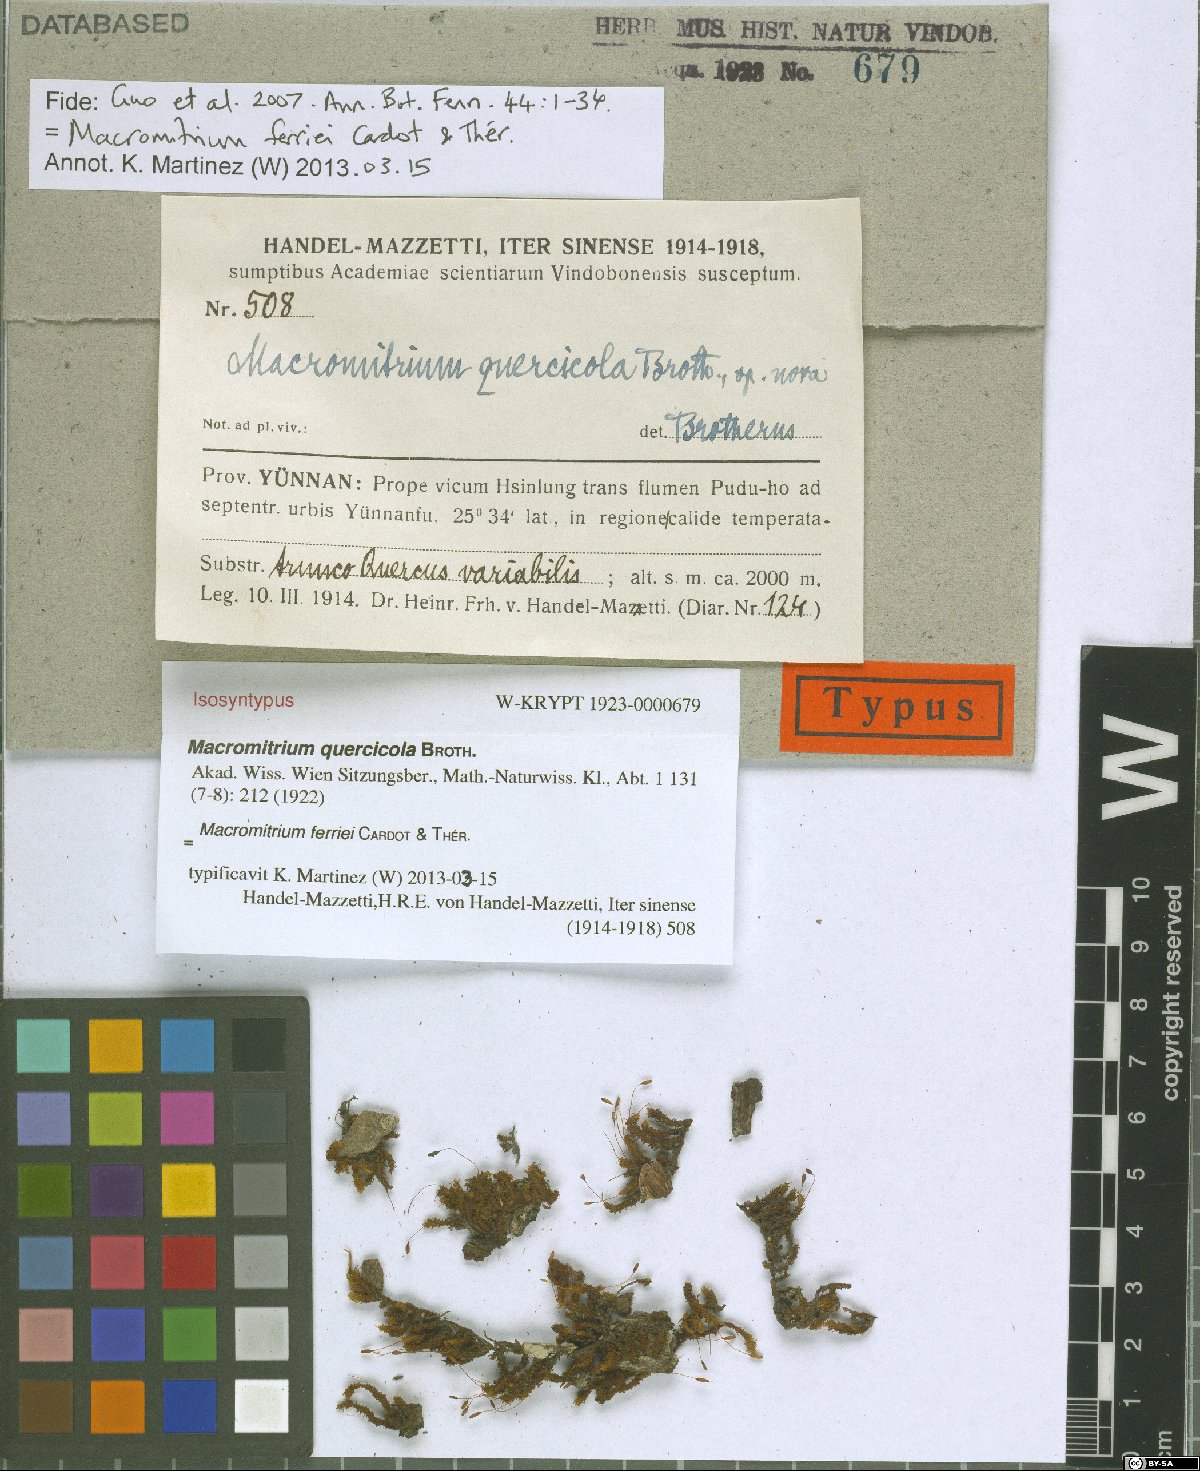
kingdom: Plantae
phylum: Bryophyta
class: Bryopsida
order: Orthotrichales
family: Orthotrichaceae
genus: Macromitrium
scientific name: Macromitrium ferriei
